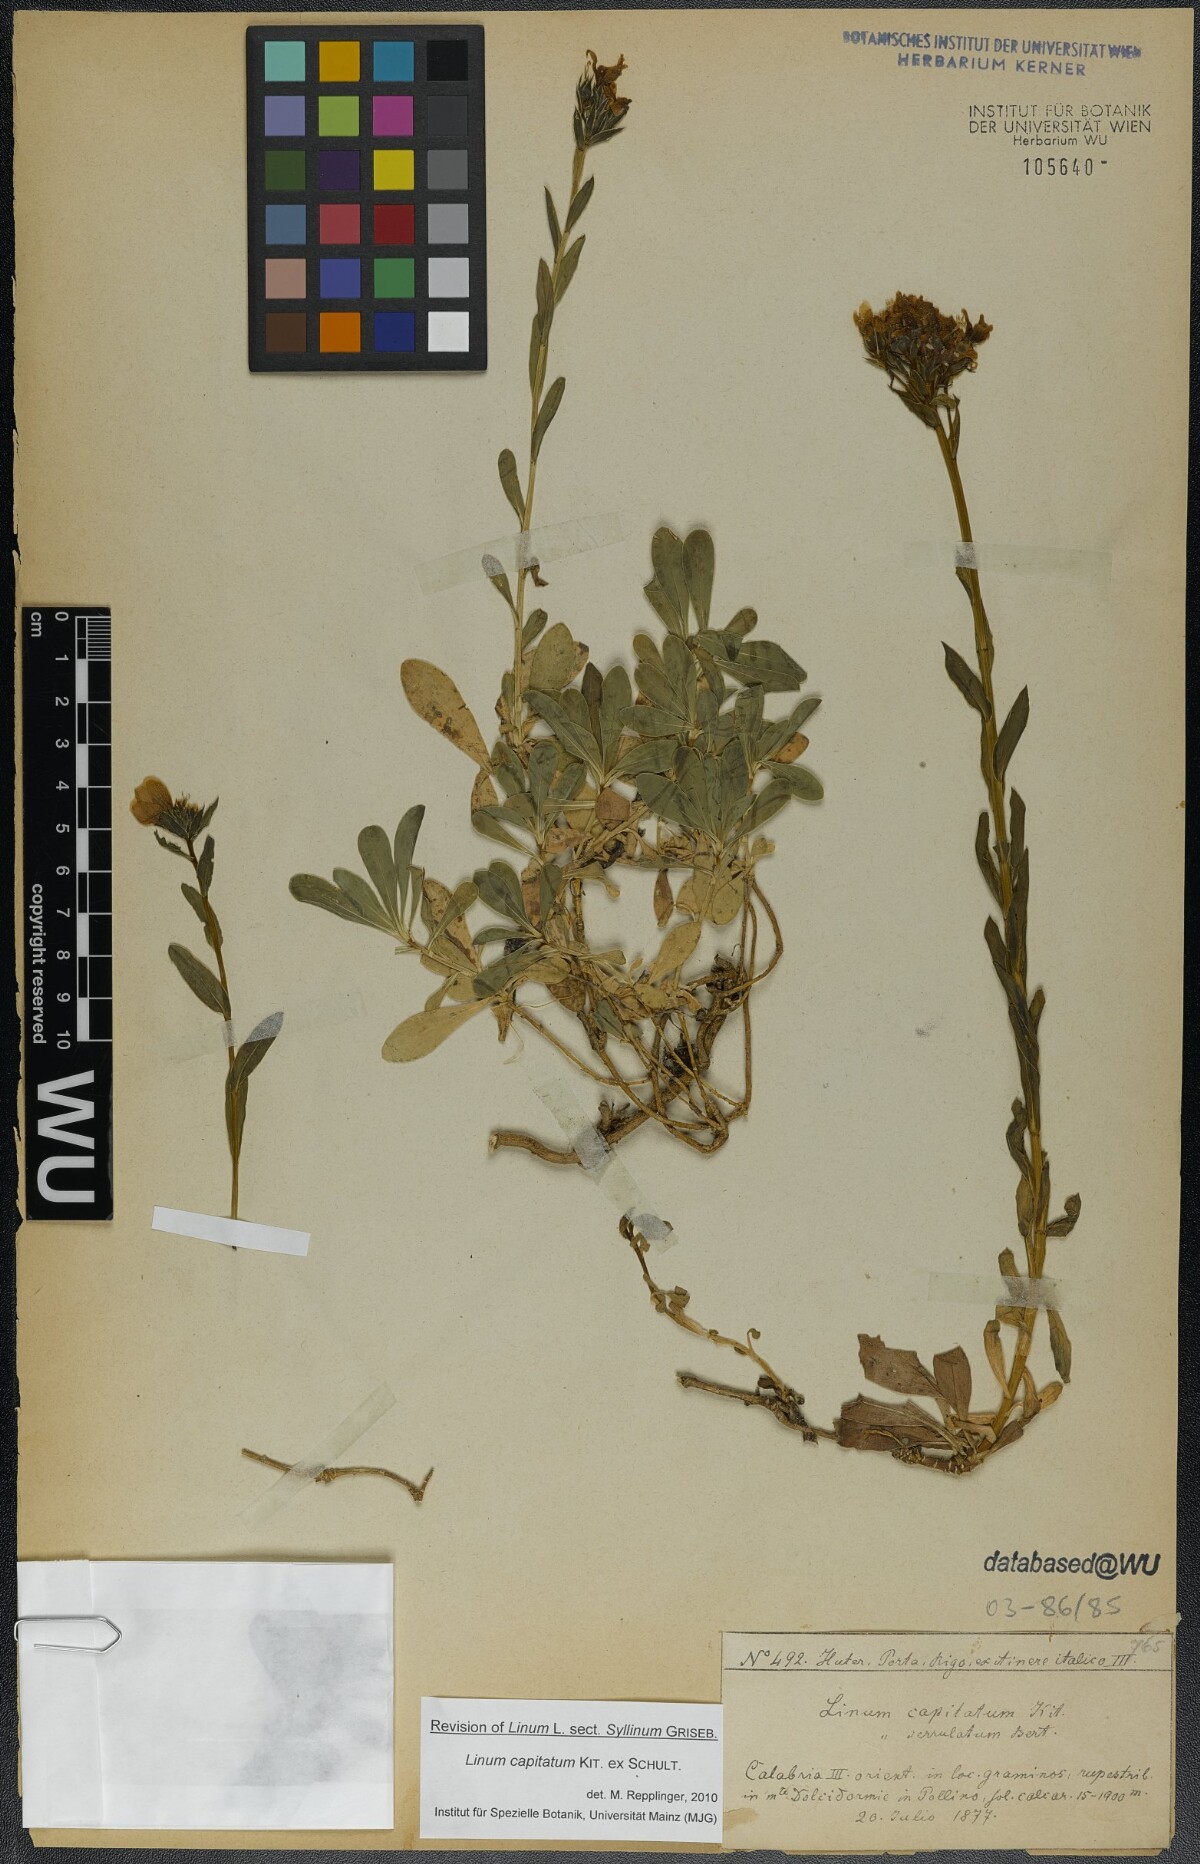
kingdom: Plantae
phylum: Tracheophyta
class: Magnoliopsida
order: Malpighiales
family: Linaceae
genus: Linum
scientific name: Linum capitatum
